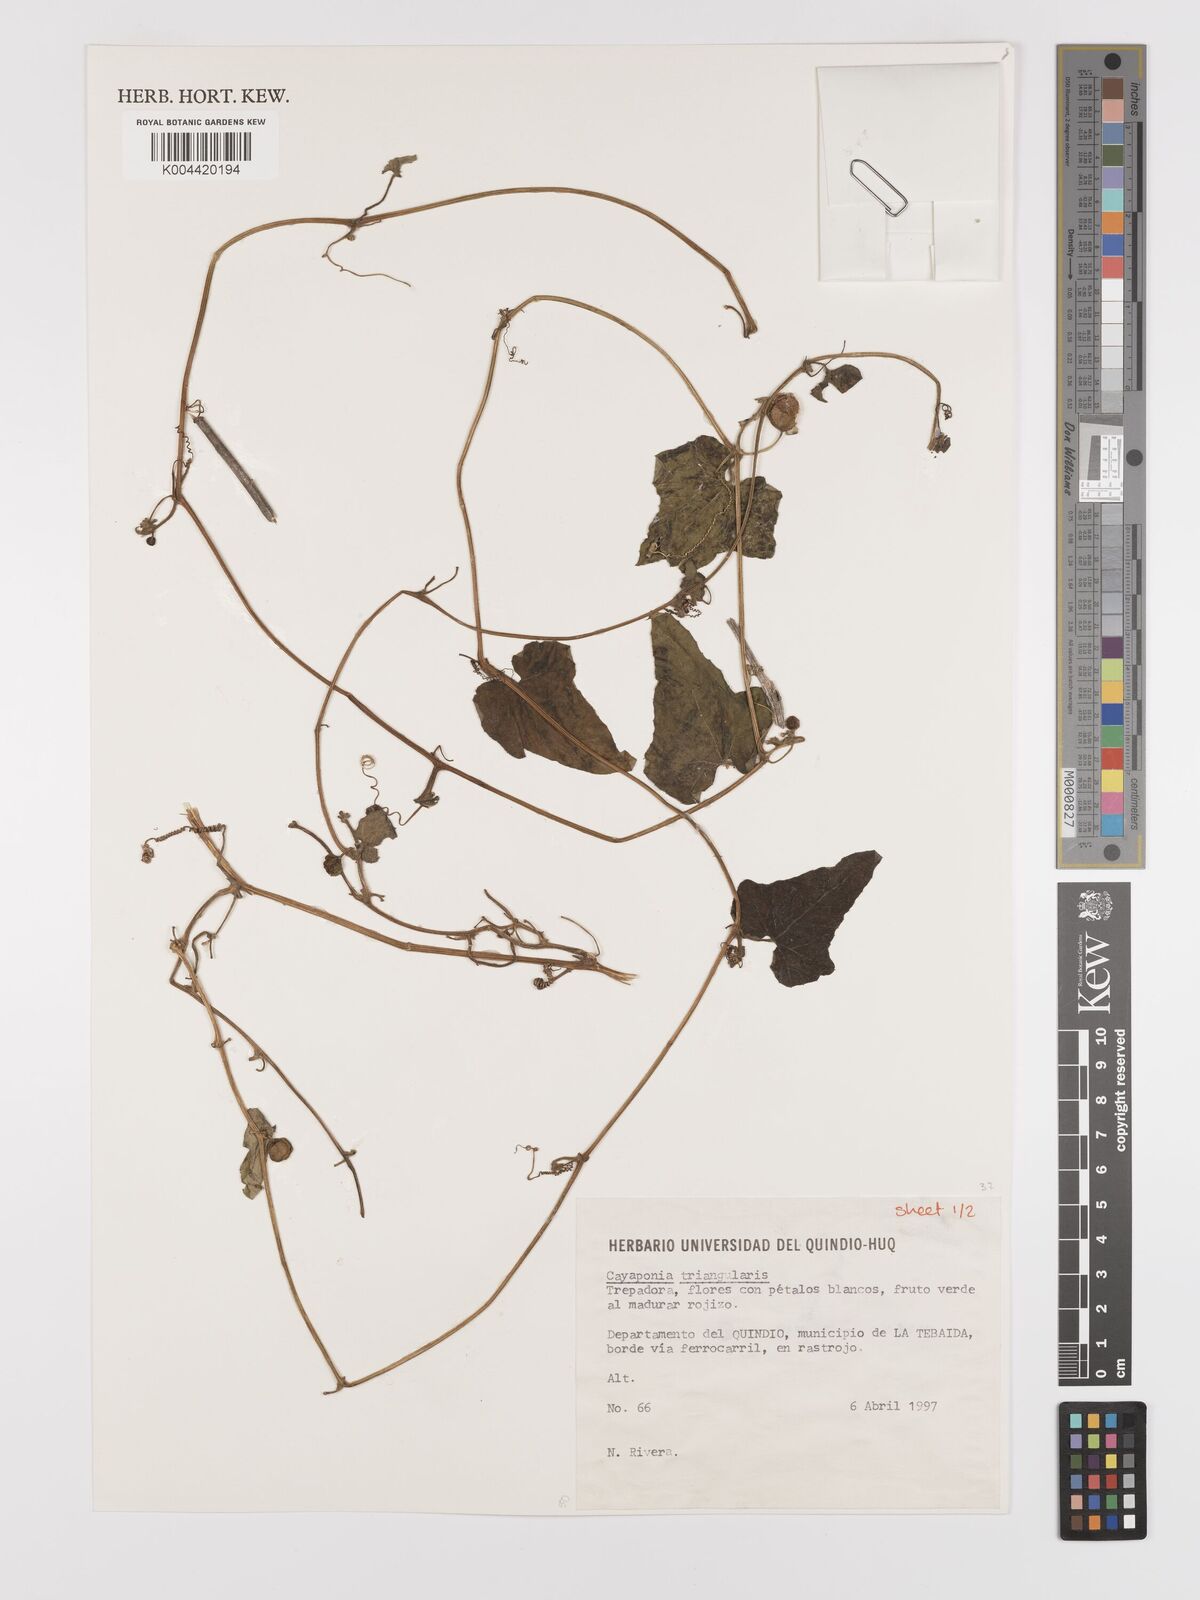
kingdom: Plantae
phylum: Tracheophyta
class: Magnoliopsida
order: Cucurbitales
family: Cucurbitaceae
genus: Cayaponia
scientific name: Cayaponia triangularis
